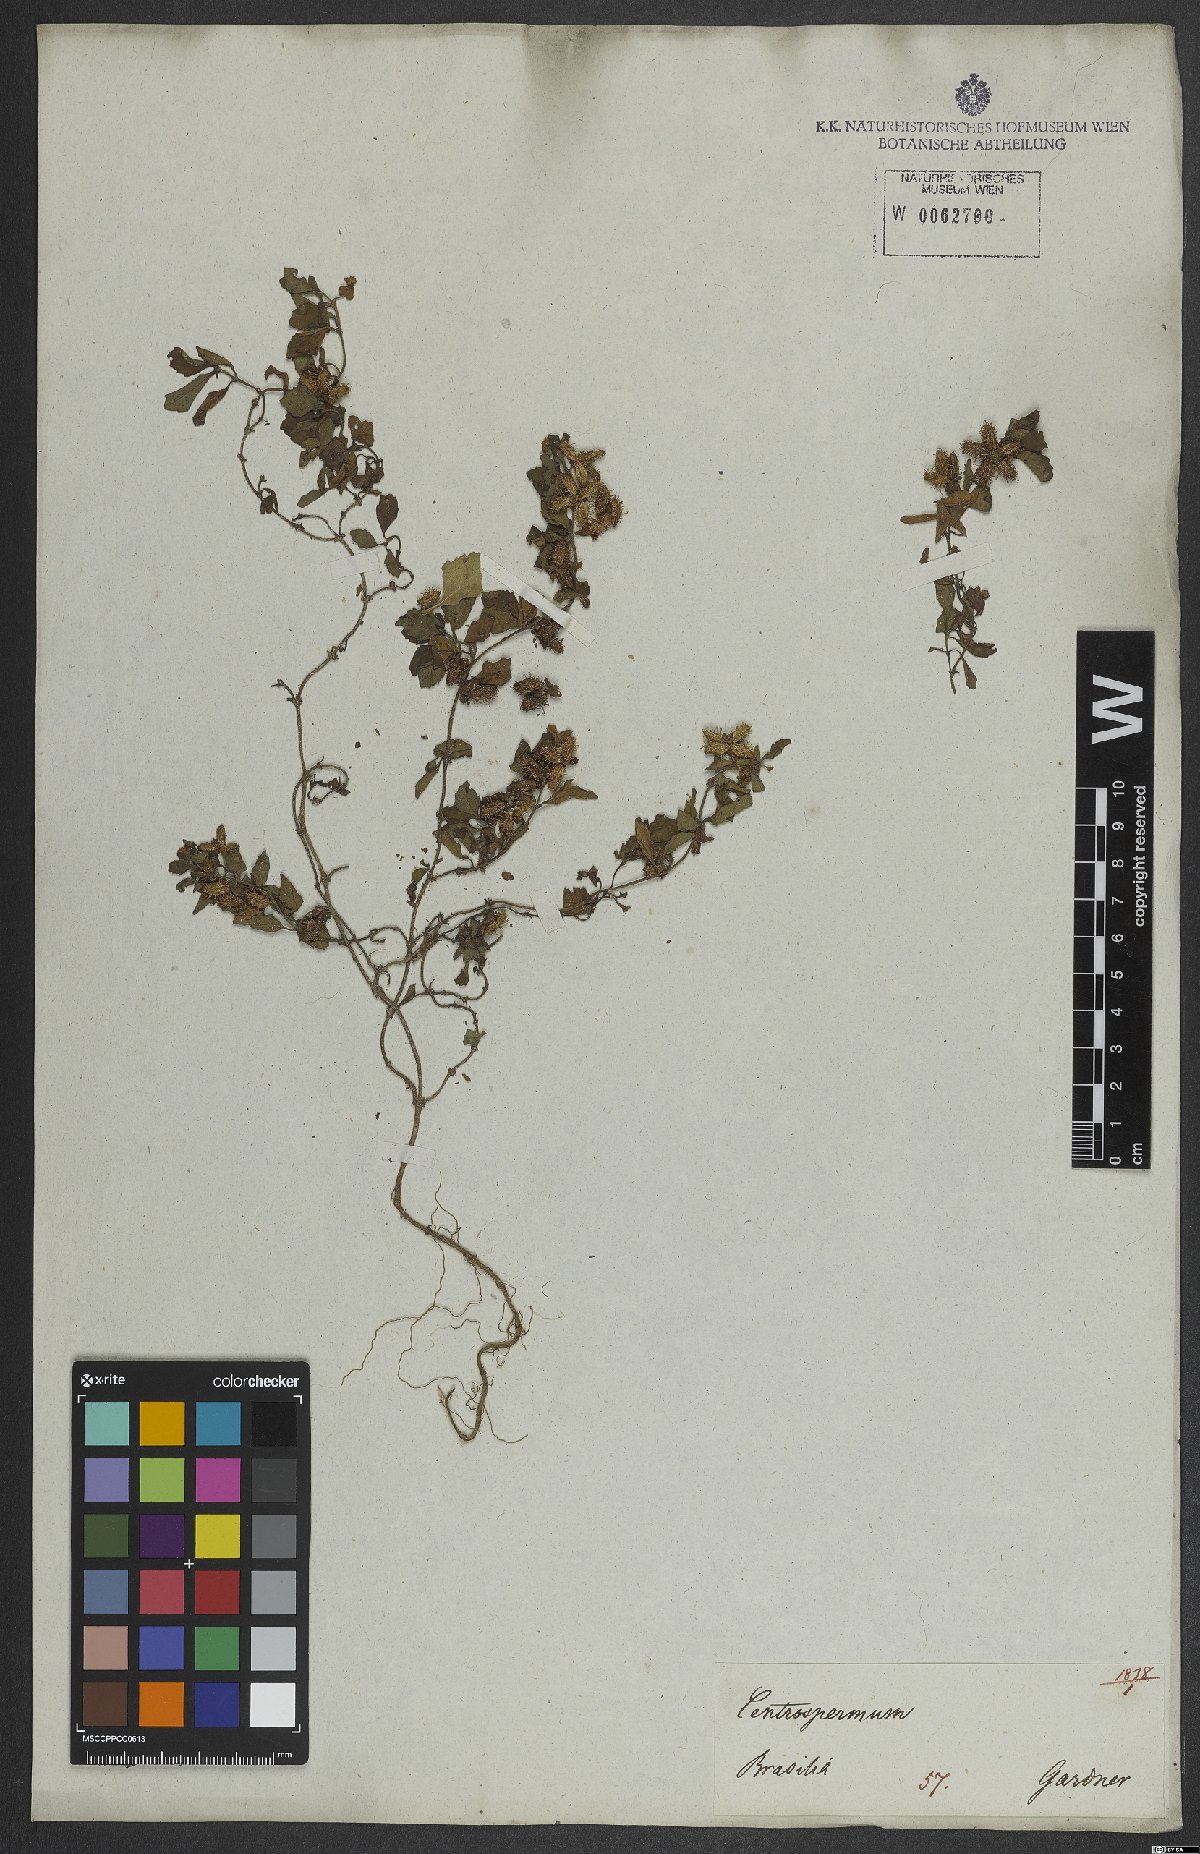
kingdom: Plantae
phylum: Tracheophyta
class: Magnoliopsida
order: Asterales
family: Asteraceae
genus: Acanthospermum
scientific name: Acanthospermum hispidum
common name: Hispid starbur
